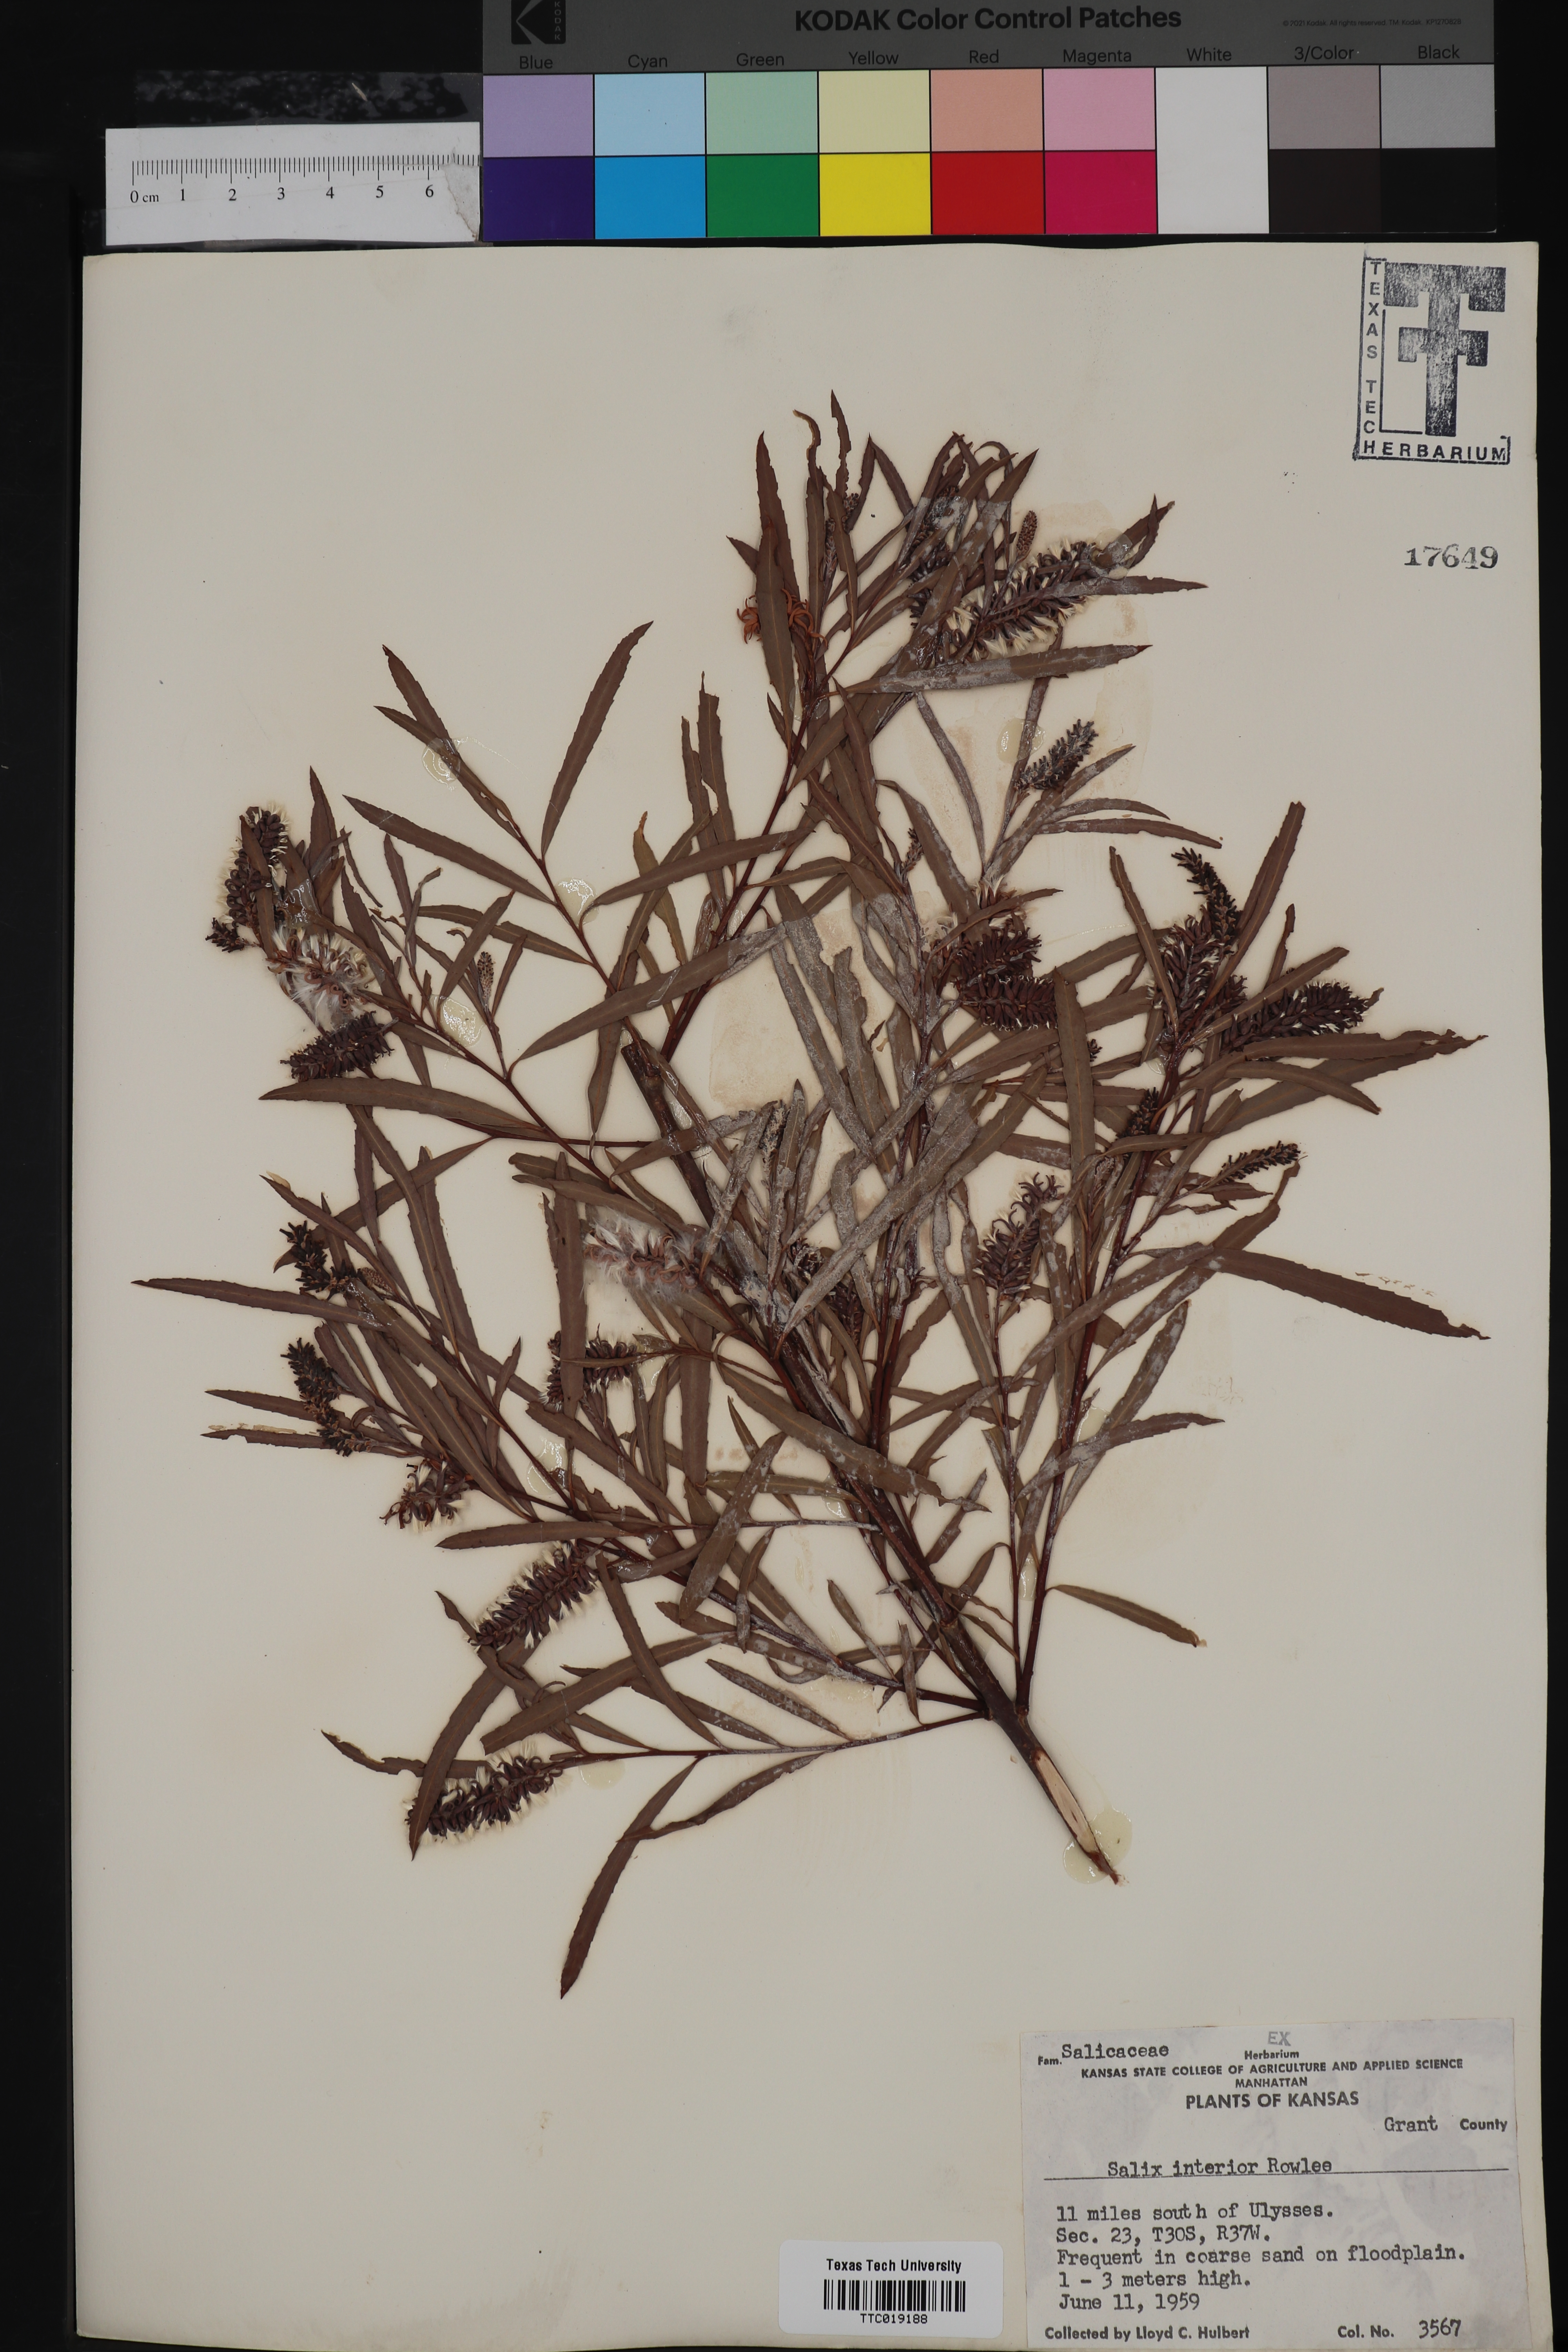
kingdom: Plantae
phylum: Tracheophyta
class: Magnoliopsida
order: Malpighiales
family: Salicaceae
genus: Salix
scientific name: Salix interior
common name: Sandbar willow
